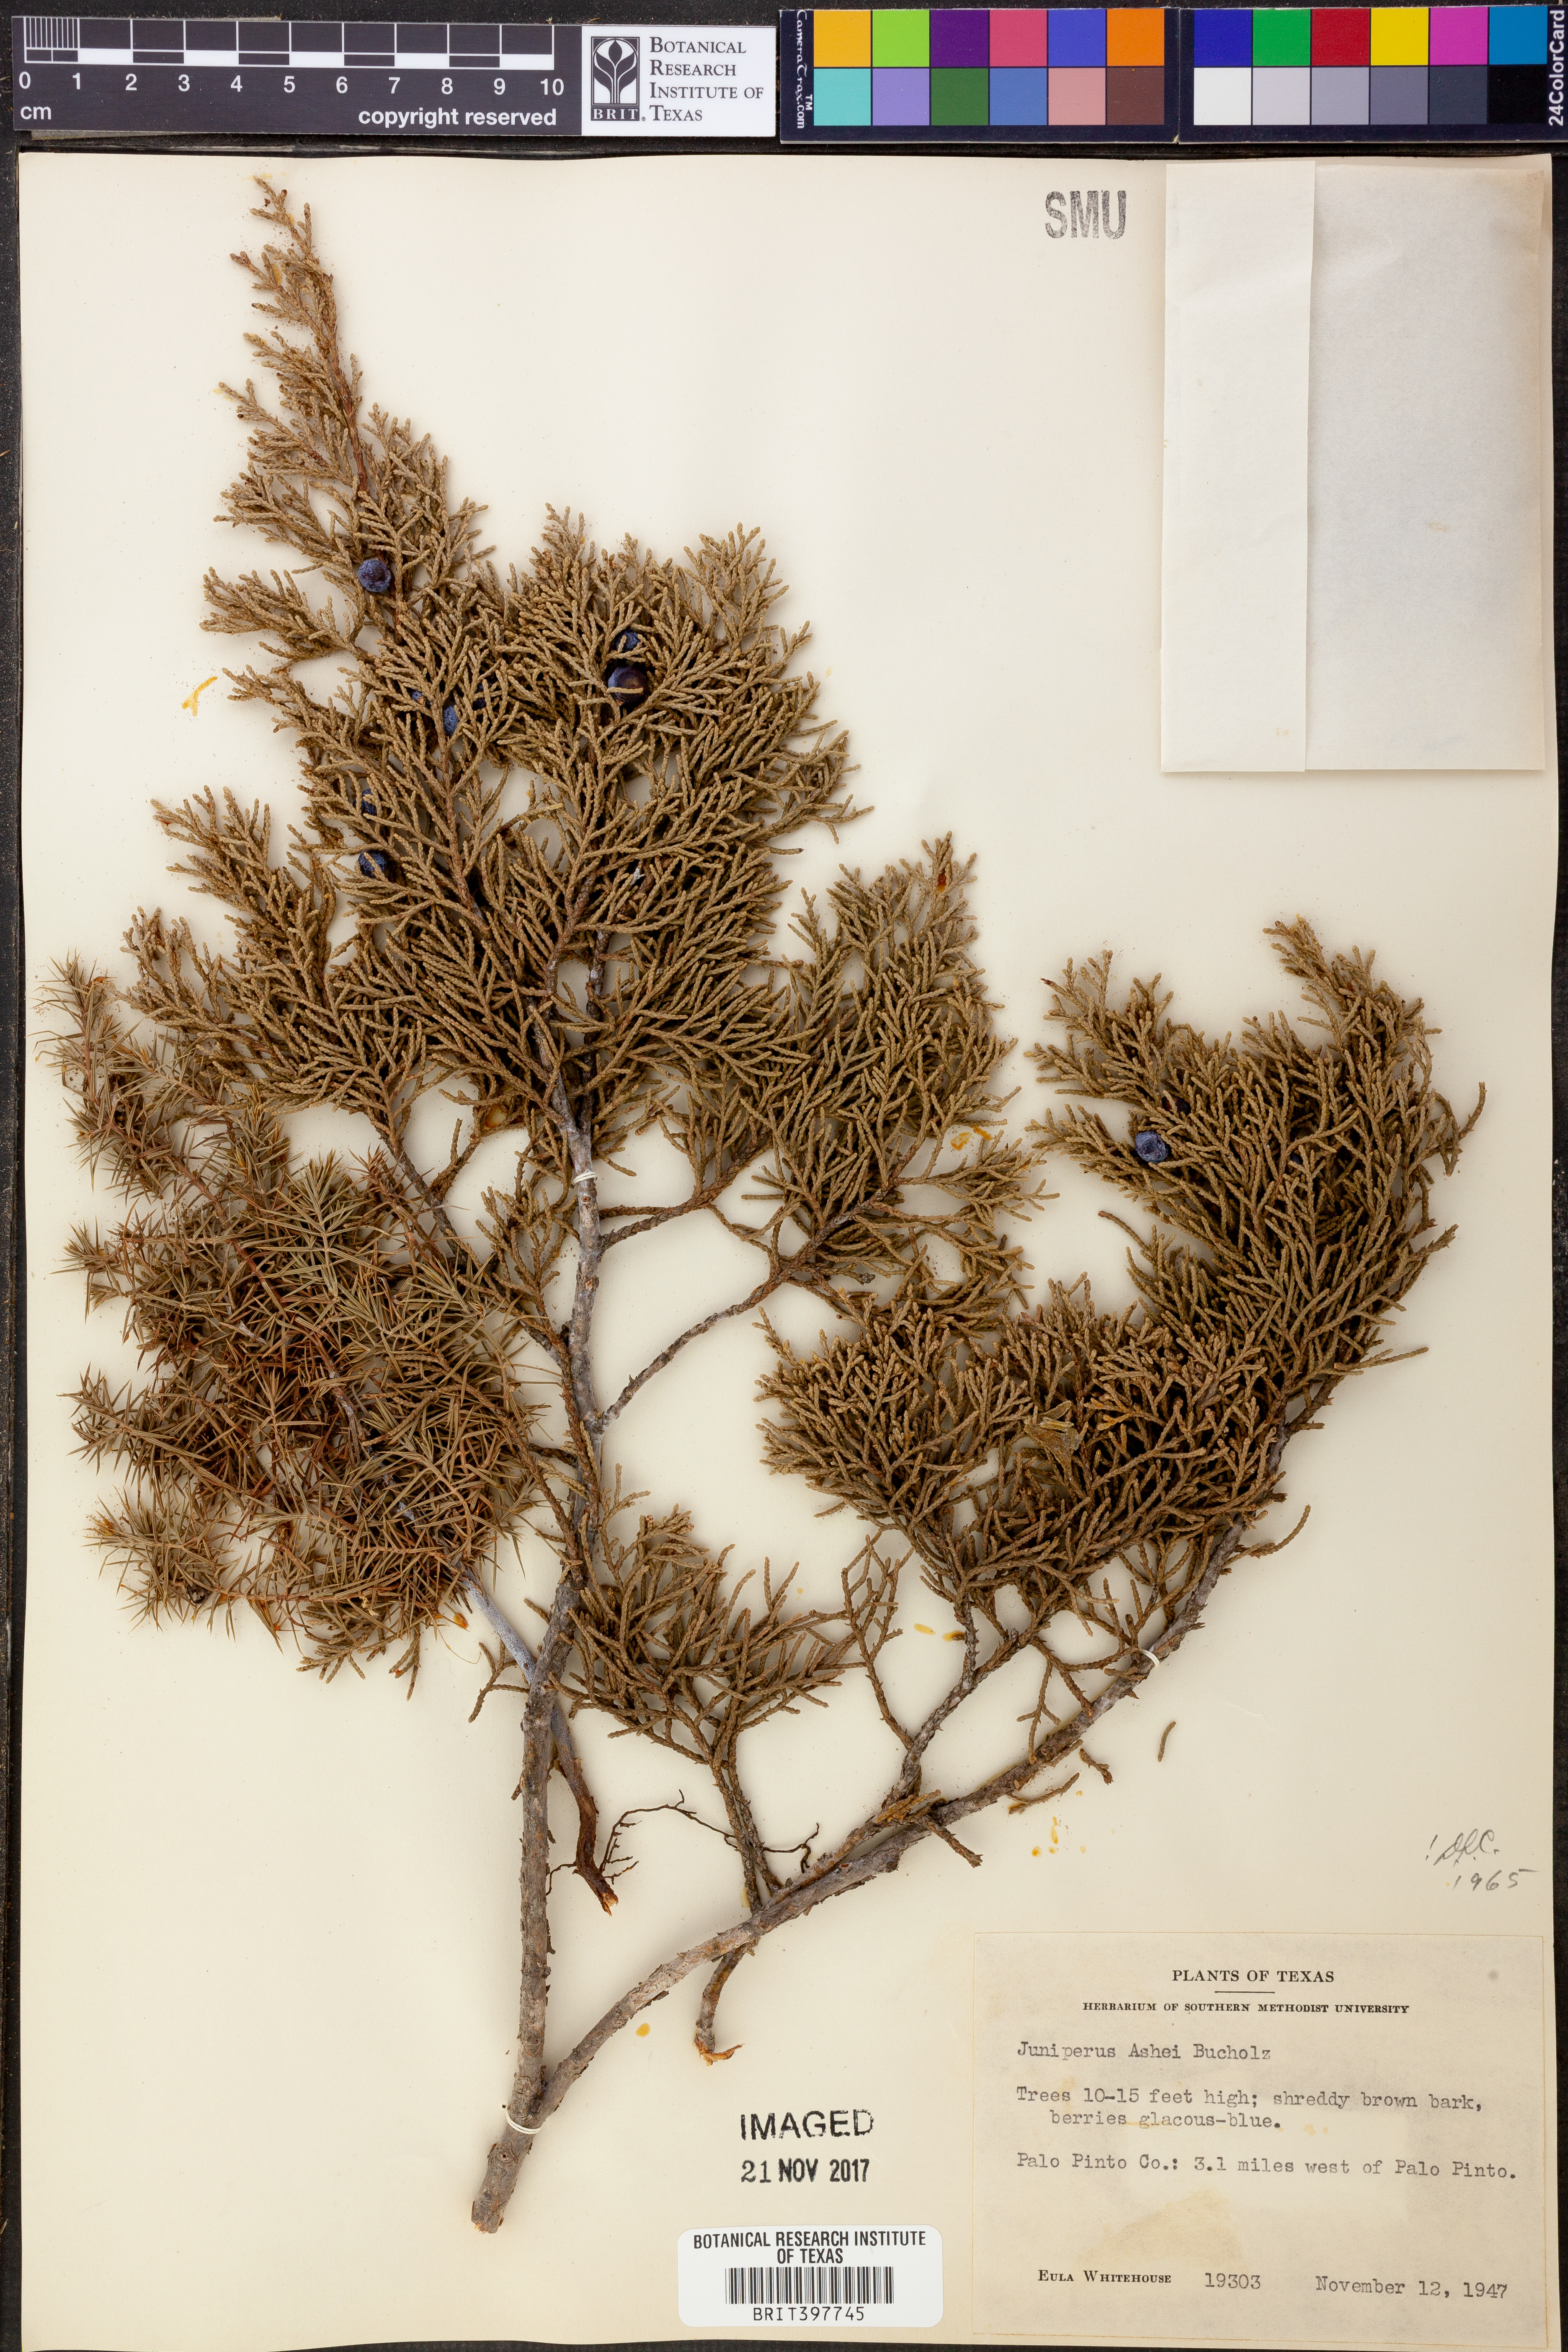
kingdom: Plantae
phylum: Tracheophyta
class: Pinopsida
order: Pinales
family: Cupressaceae
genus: Juniperus
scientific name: Juniperus ashei
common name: Mexican juniper
